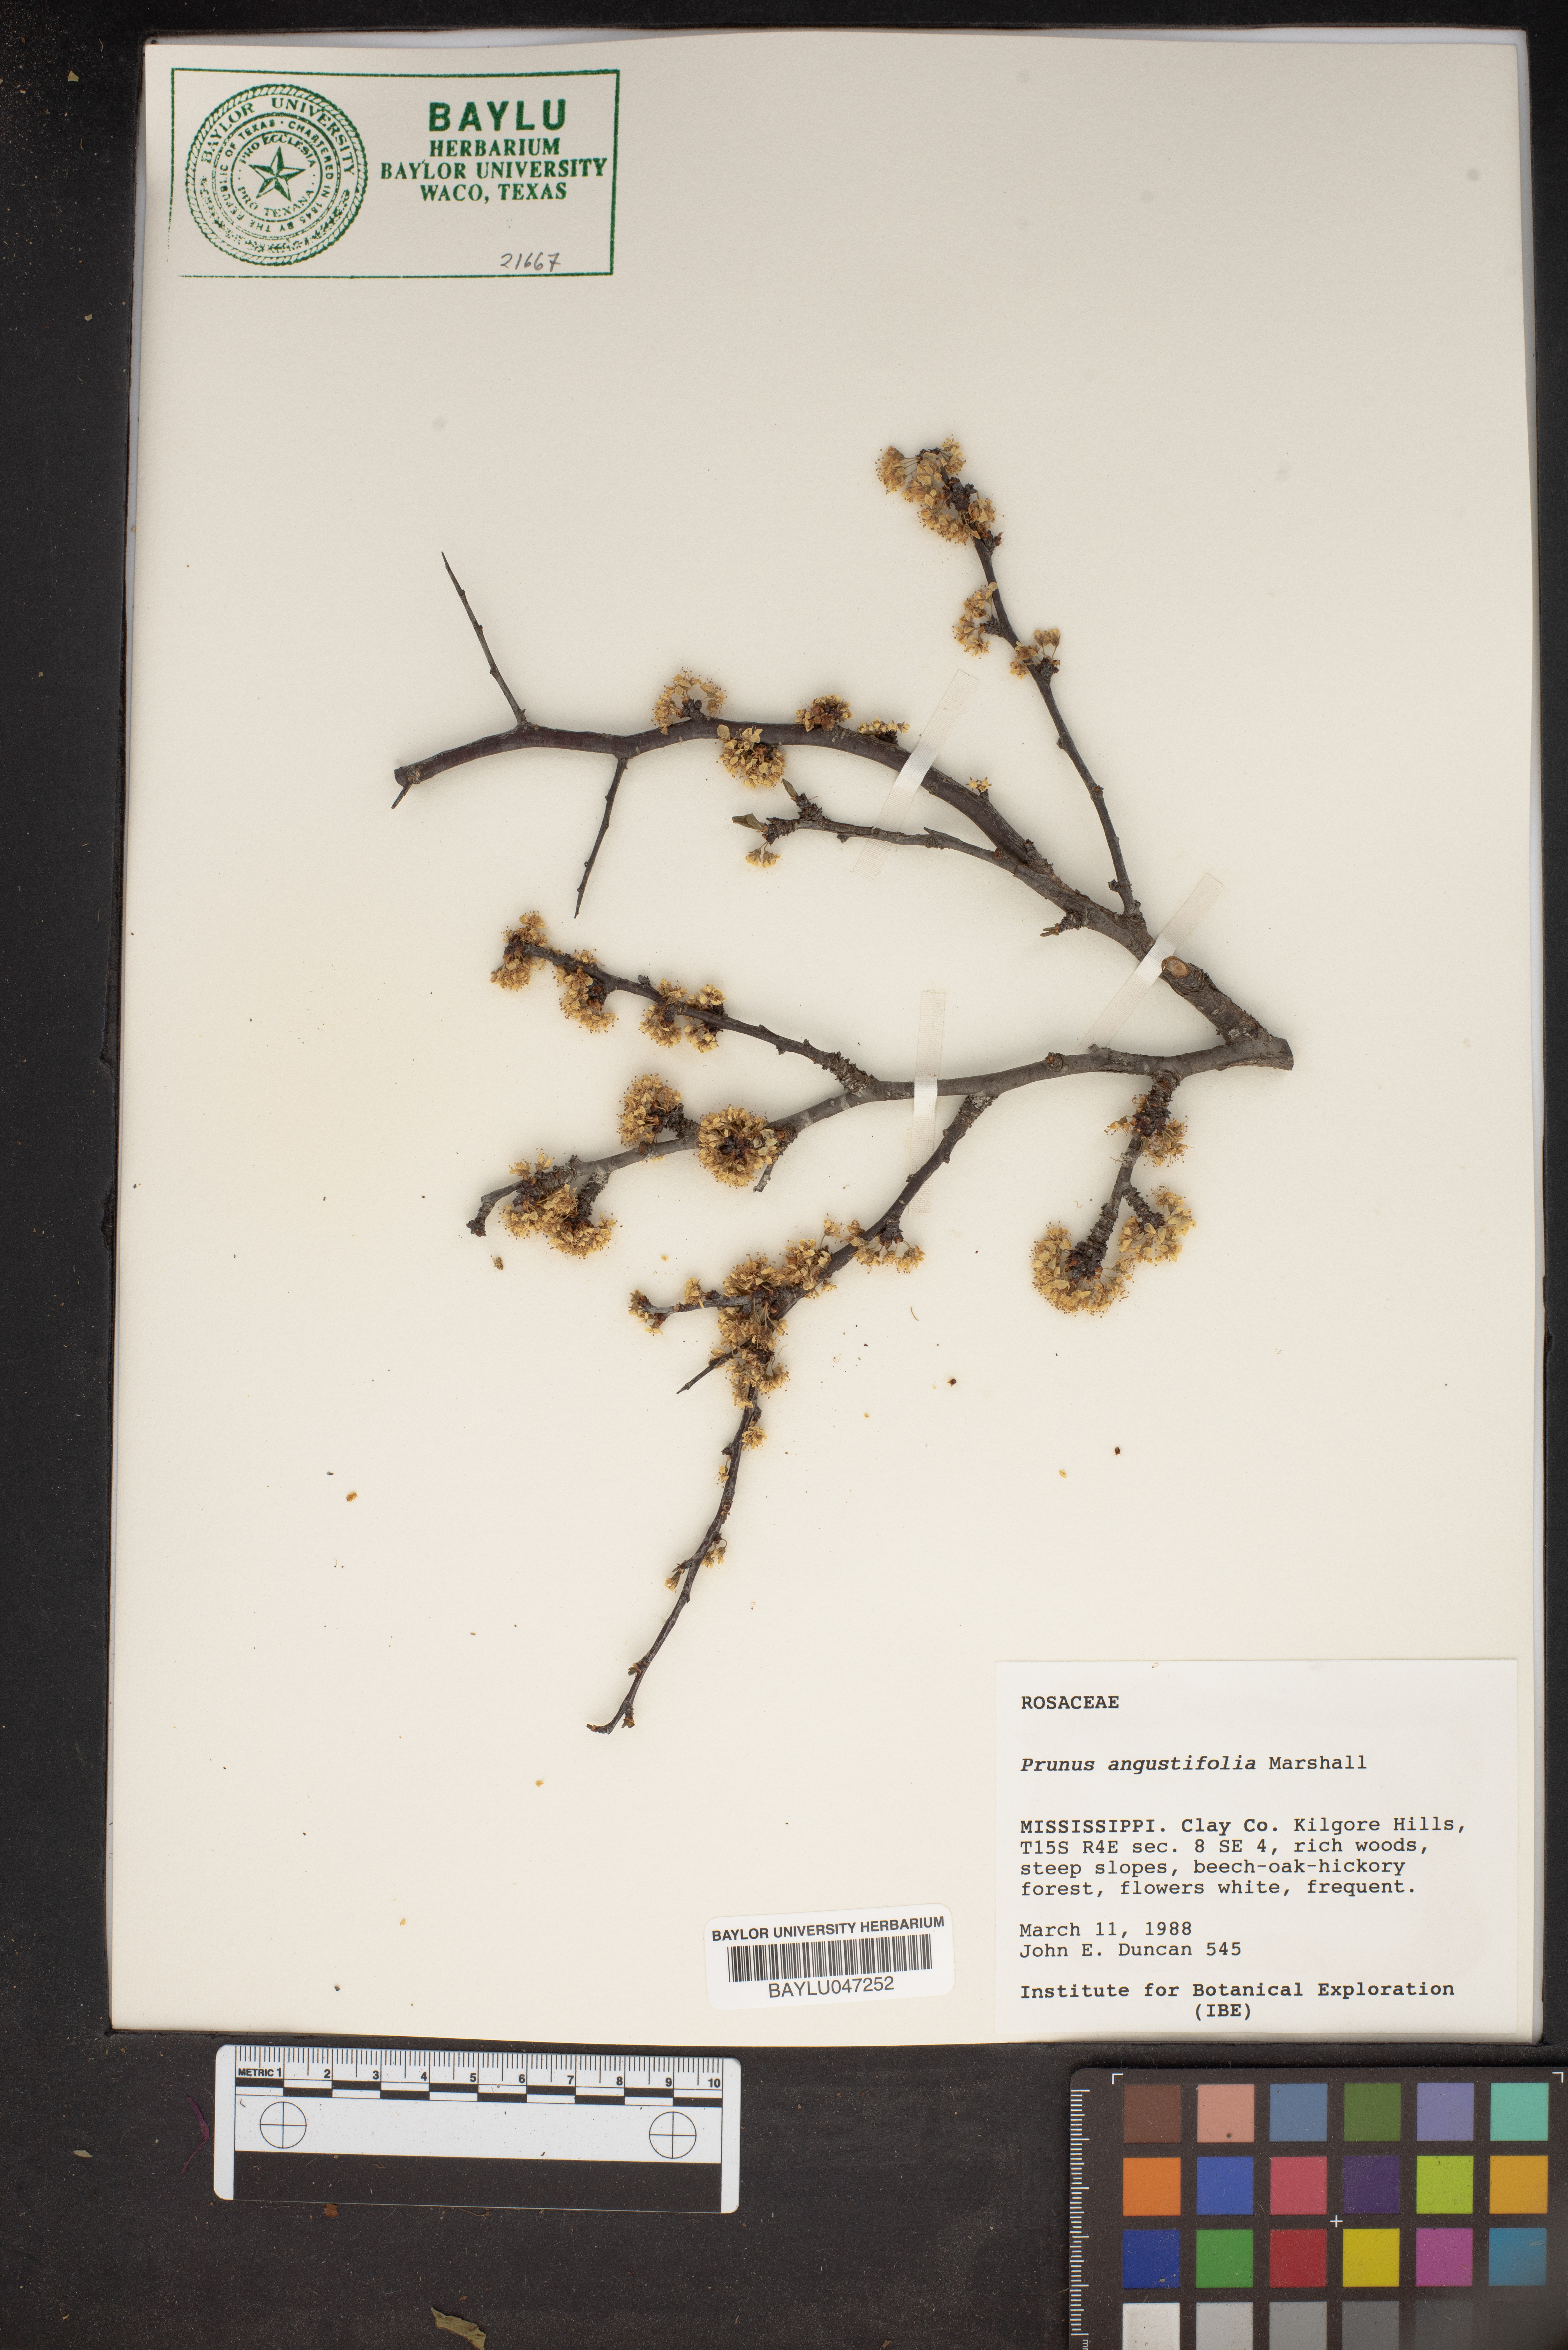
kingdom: Plantae
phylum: Tracheophyta
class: Magnoliopsida
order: Rosales
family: Rosaceae
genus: Prunus
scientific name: Prunus angustifolia
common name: Cherokee plum
